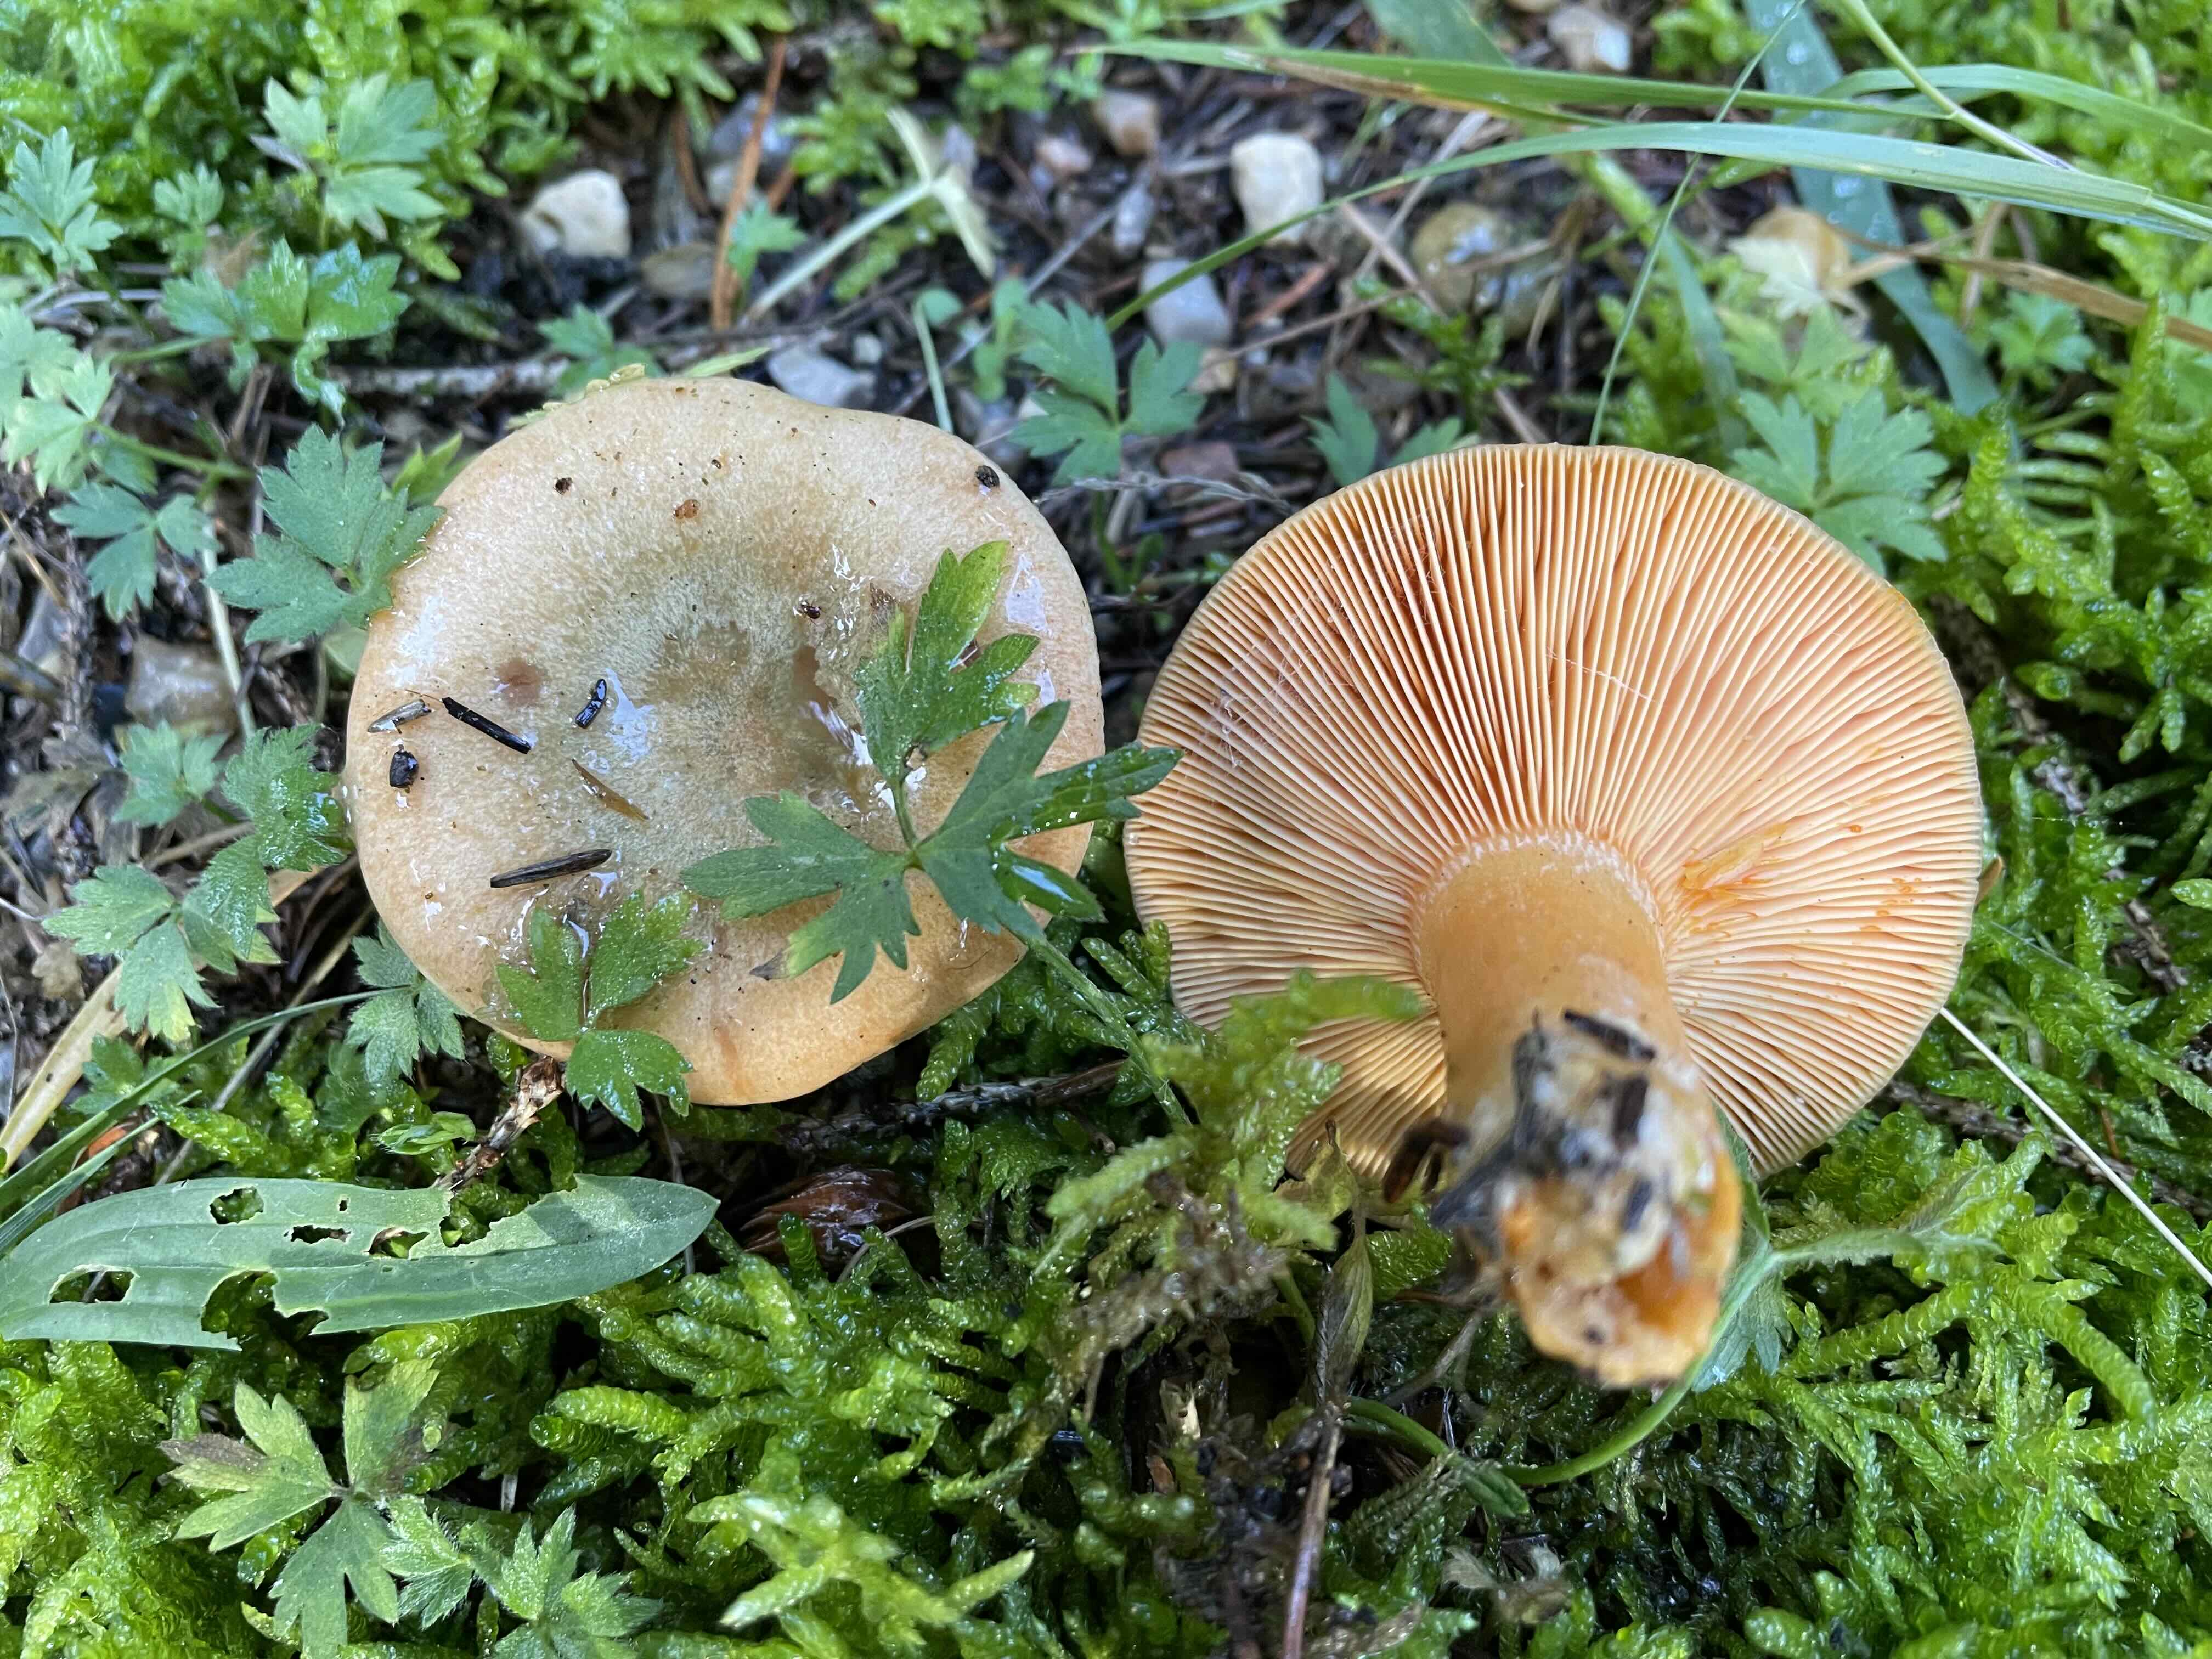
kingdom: Fungi
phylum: Basidiomycota
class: Agaricomycetes
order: Russulales
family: Russulaceae
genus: Lactarius
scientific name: Lactarius deterrimus
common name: gran-mælkehat
